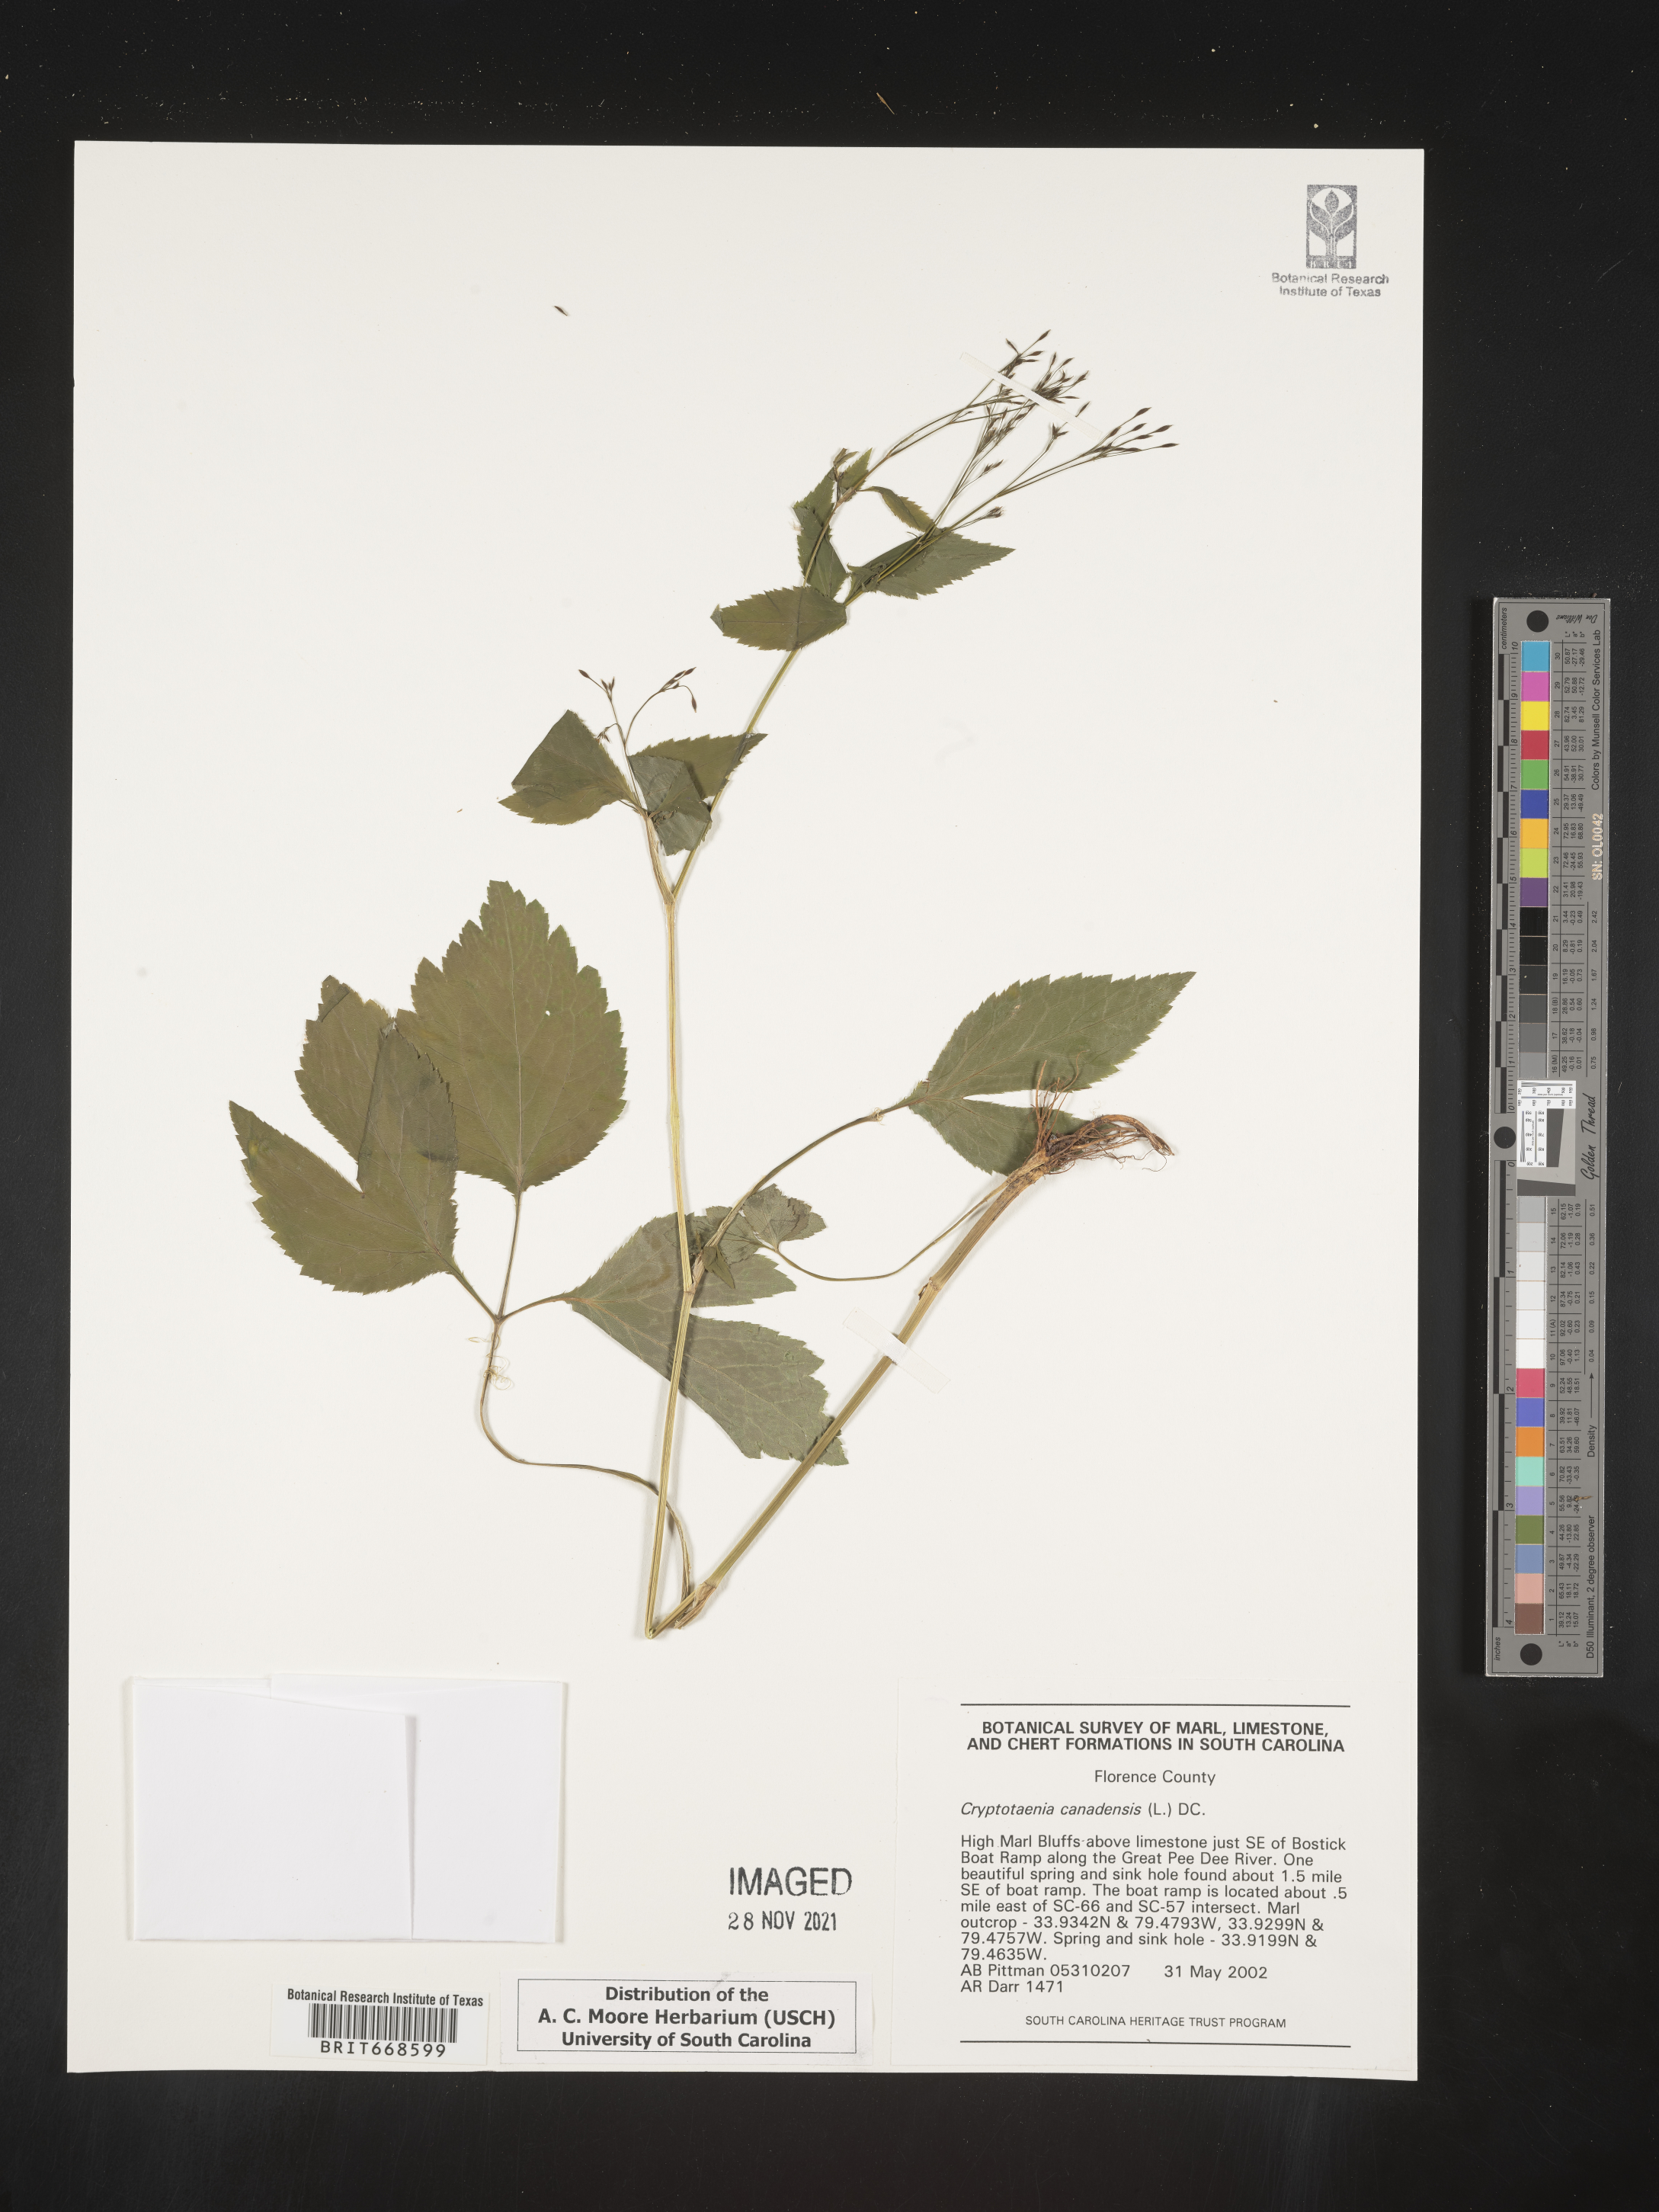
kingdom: Plantae
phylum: Tracheophyta
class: Magnoliopsida
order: Apiales
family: Apiaceae
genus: Cryptotaenia
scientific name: Cryptotaenia canadensis
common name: Honewort
